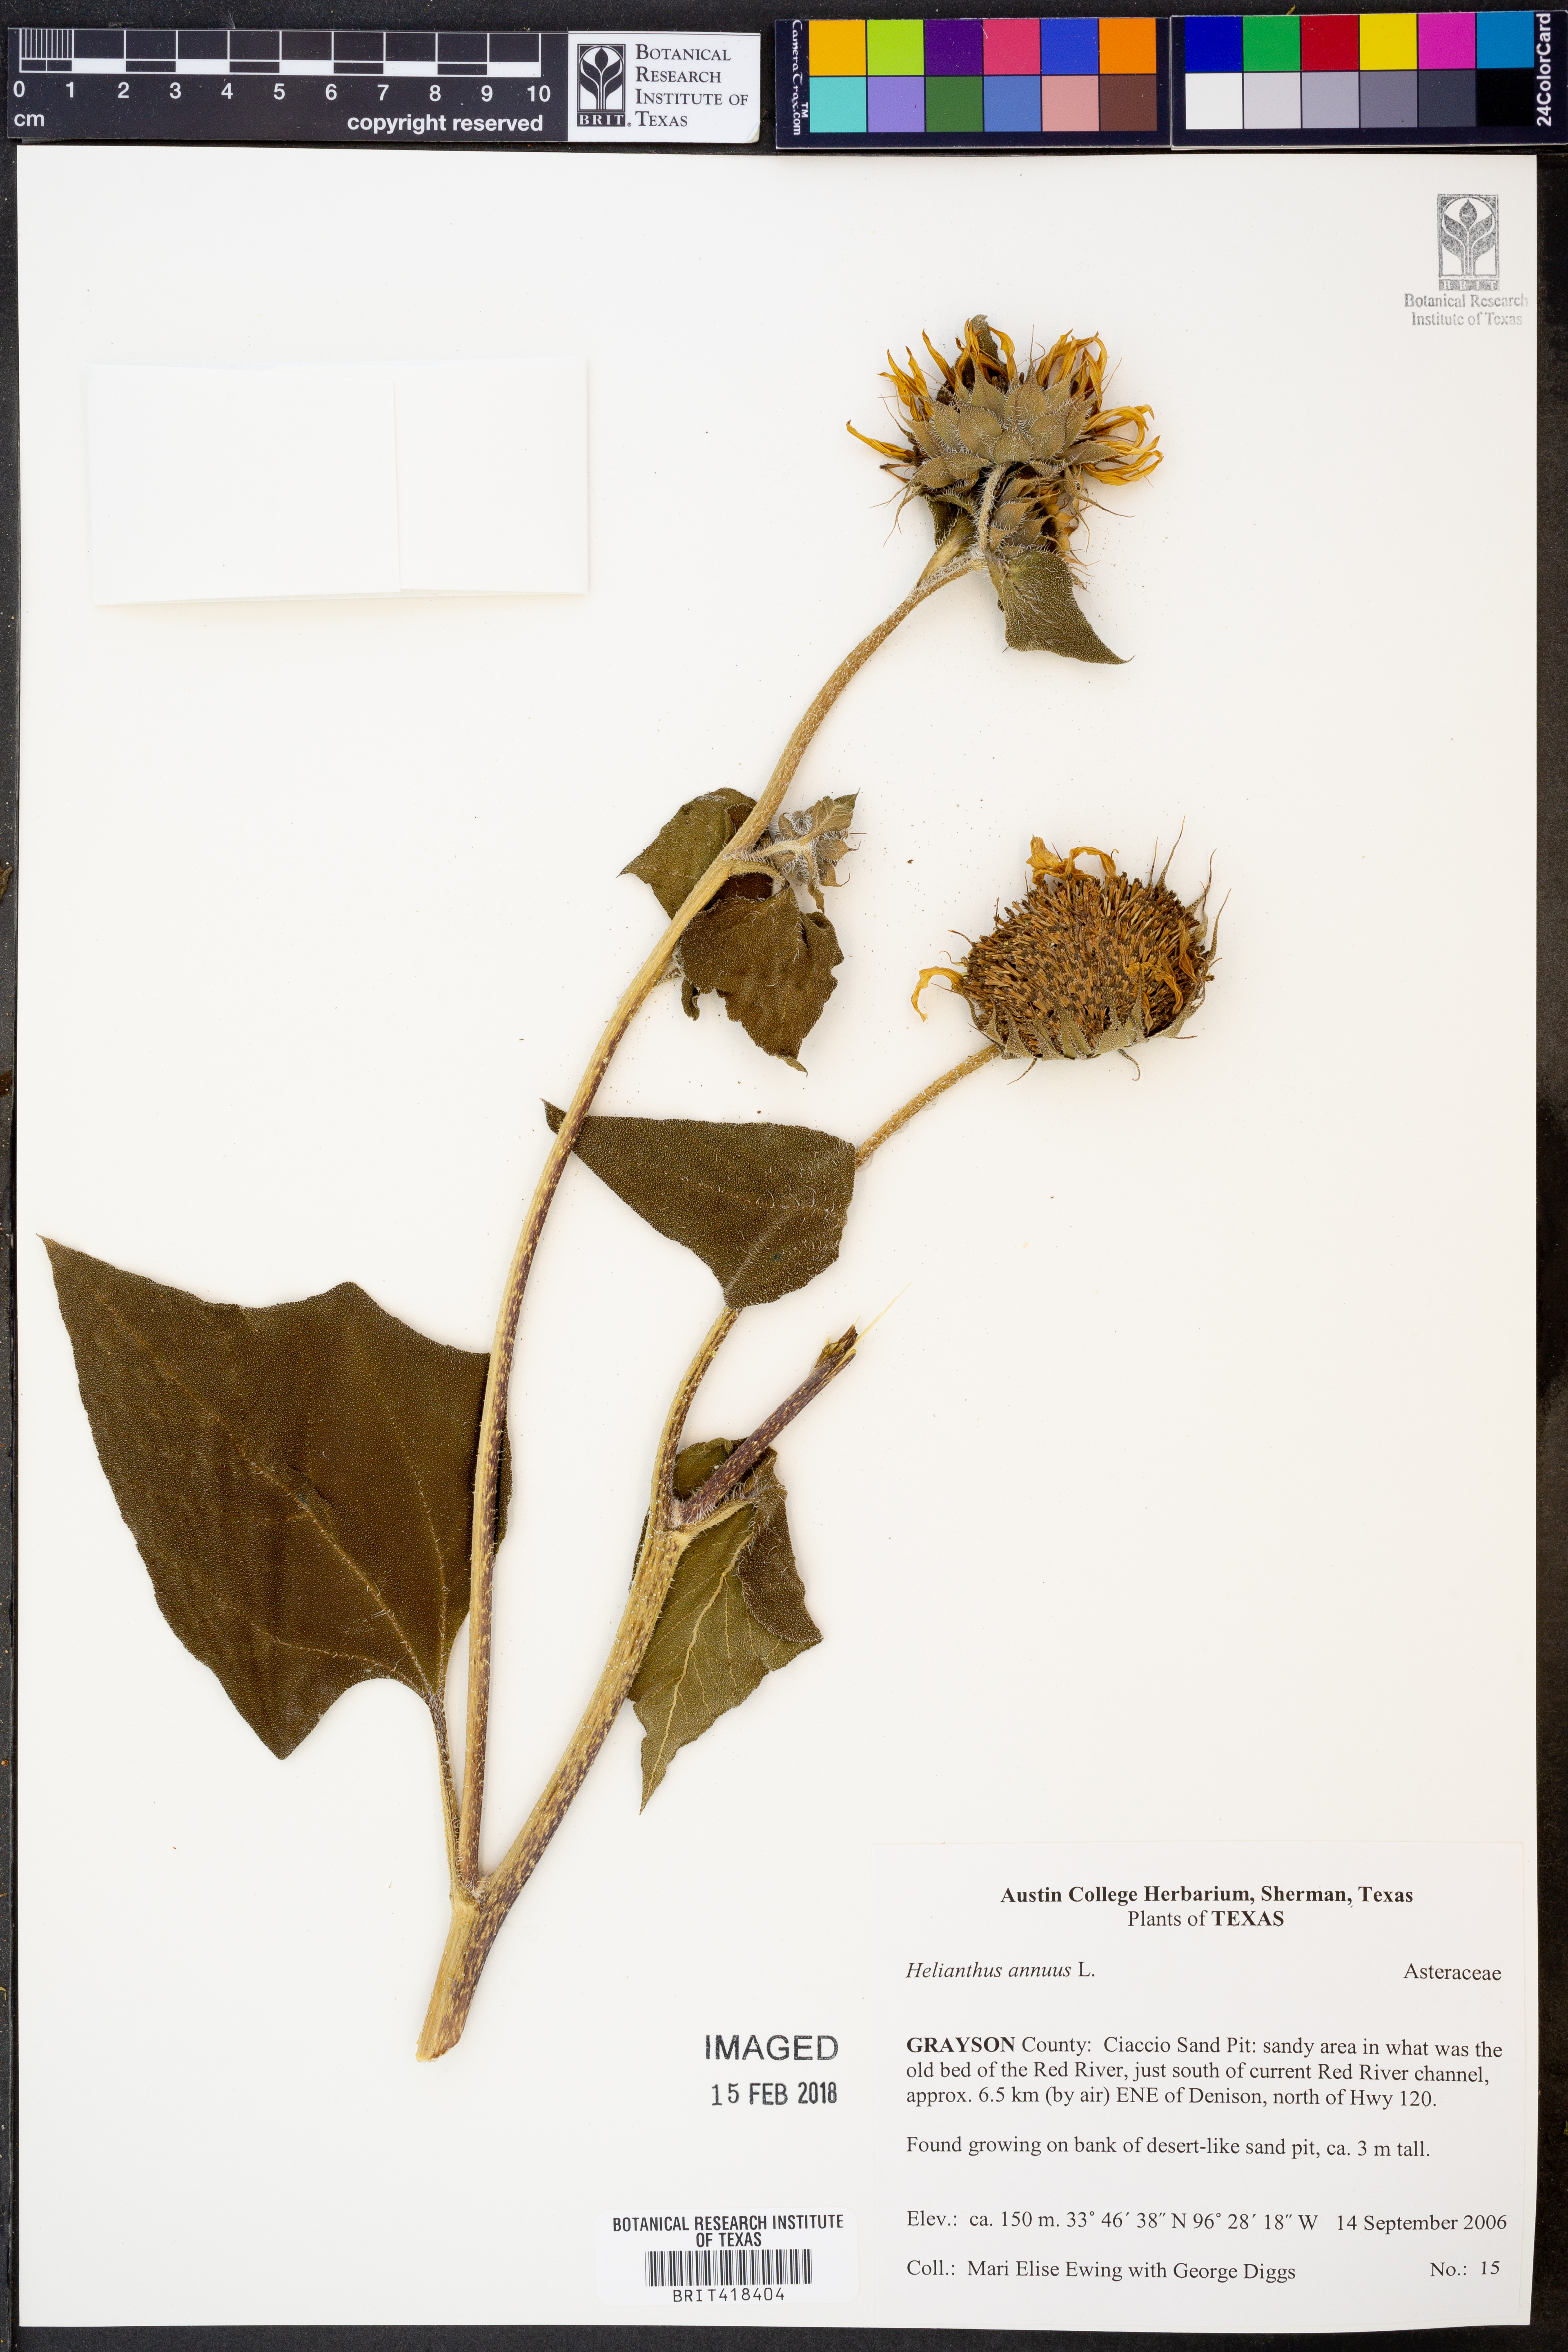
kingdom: Plantae
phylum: Tracheophyta
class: Magnoliopsida
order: Asterales
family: Asteraceae
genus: Helianthus
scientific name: Helianthus annuus
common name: Sunflower
